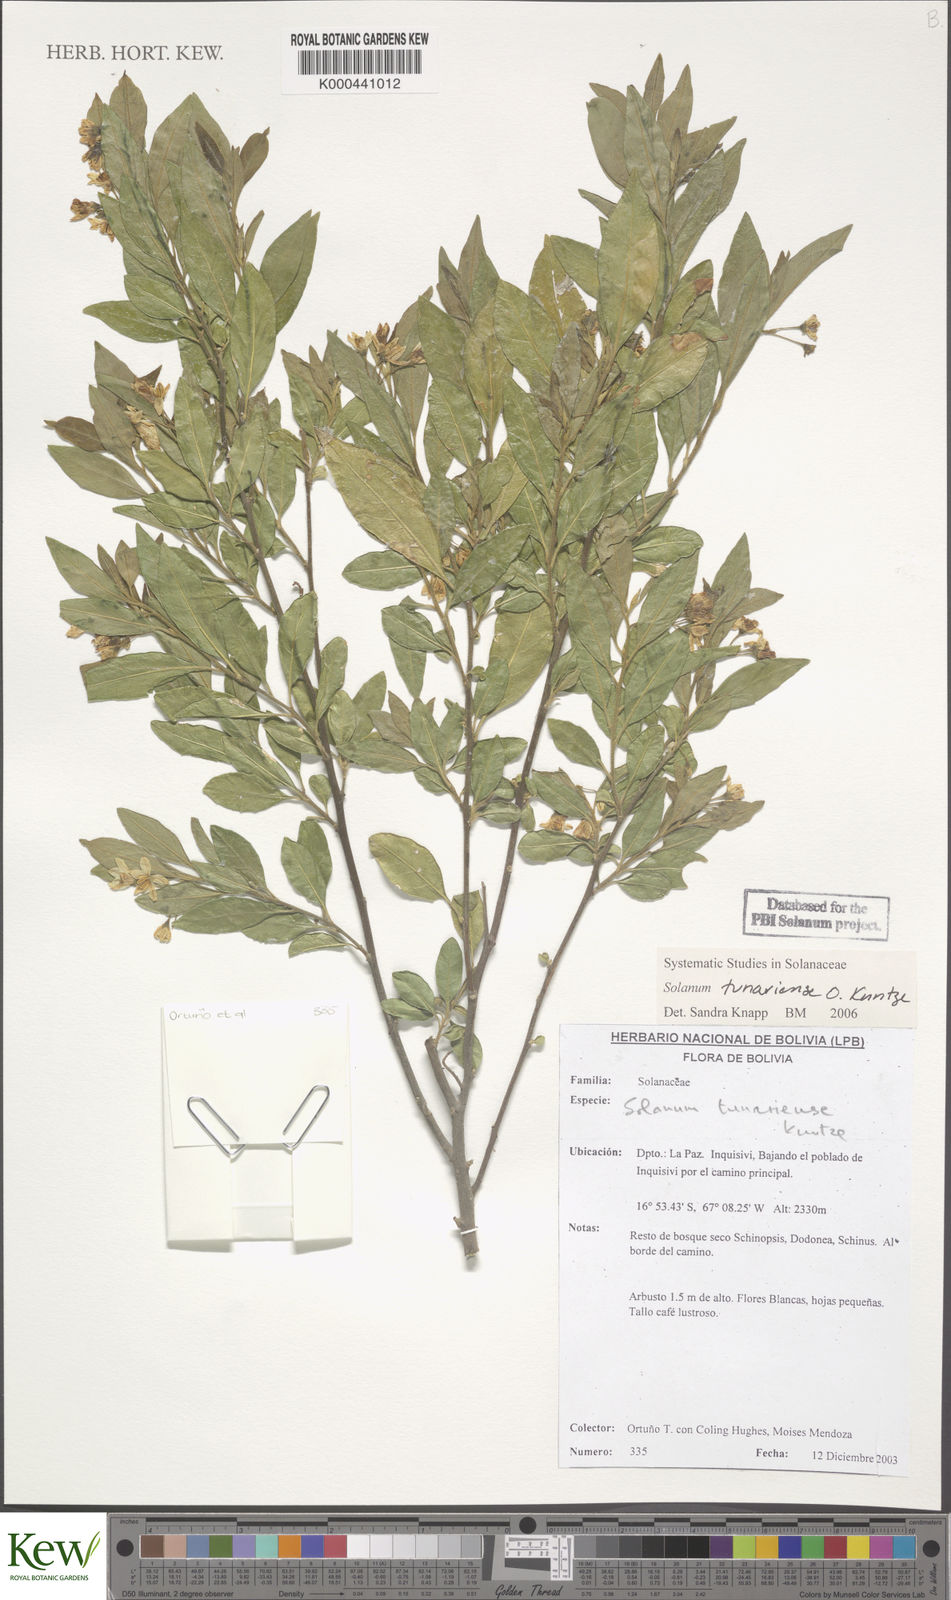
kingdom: Plantae
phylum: Tracheophyta
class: Magnoliopsida
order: Solanales
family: Solanaceae
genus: Solanum
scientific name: Solanum tunariense
